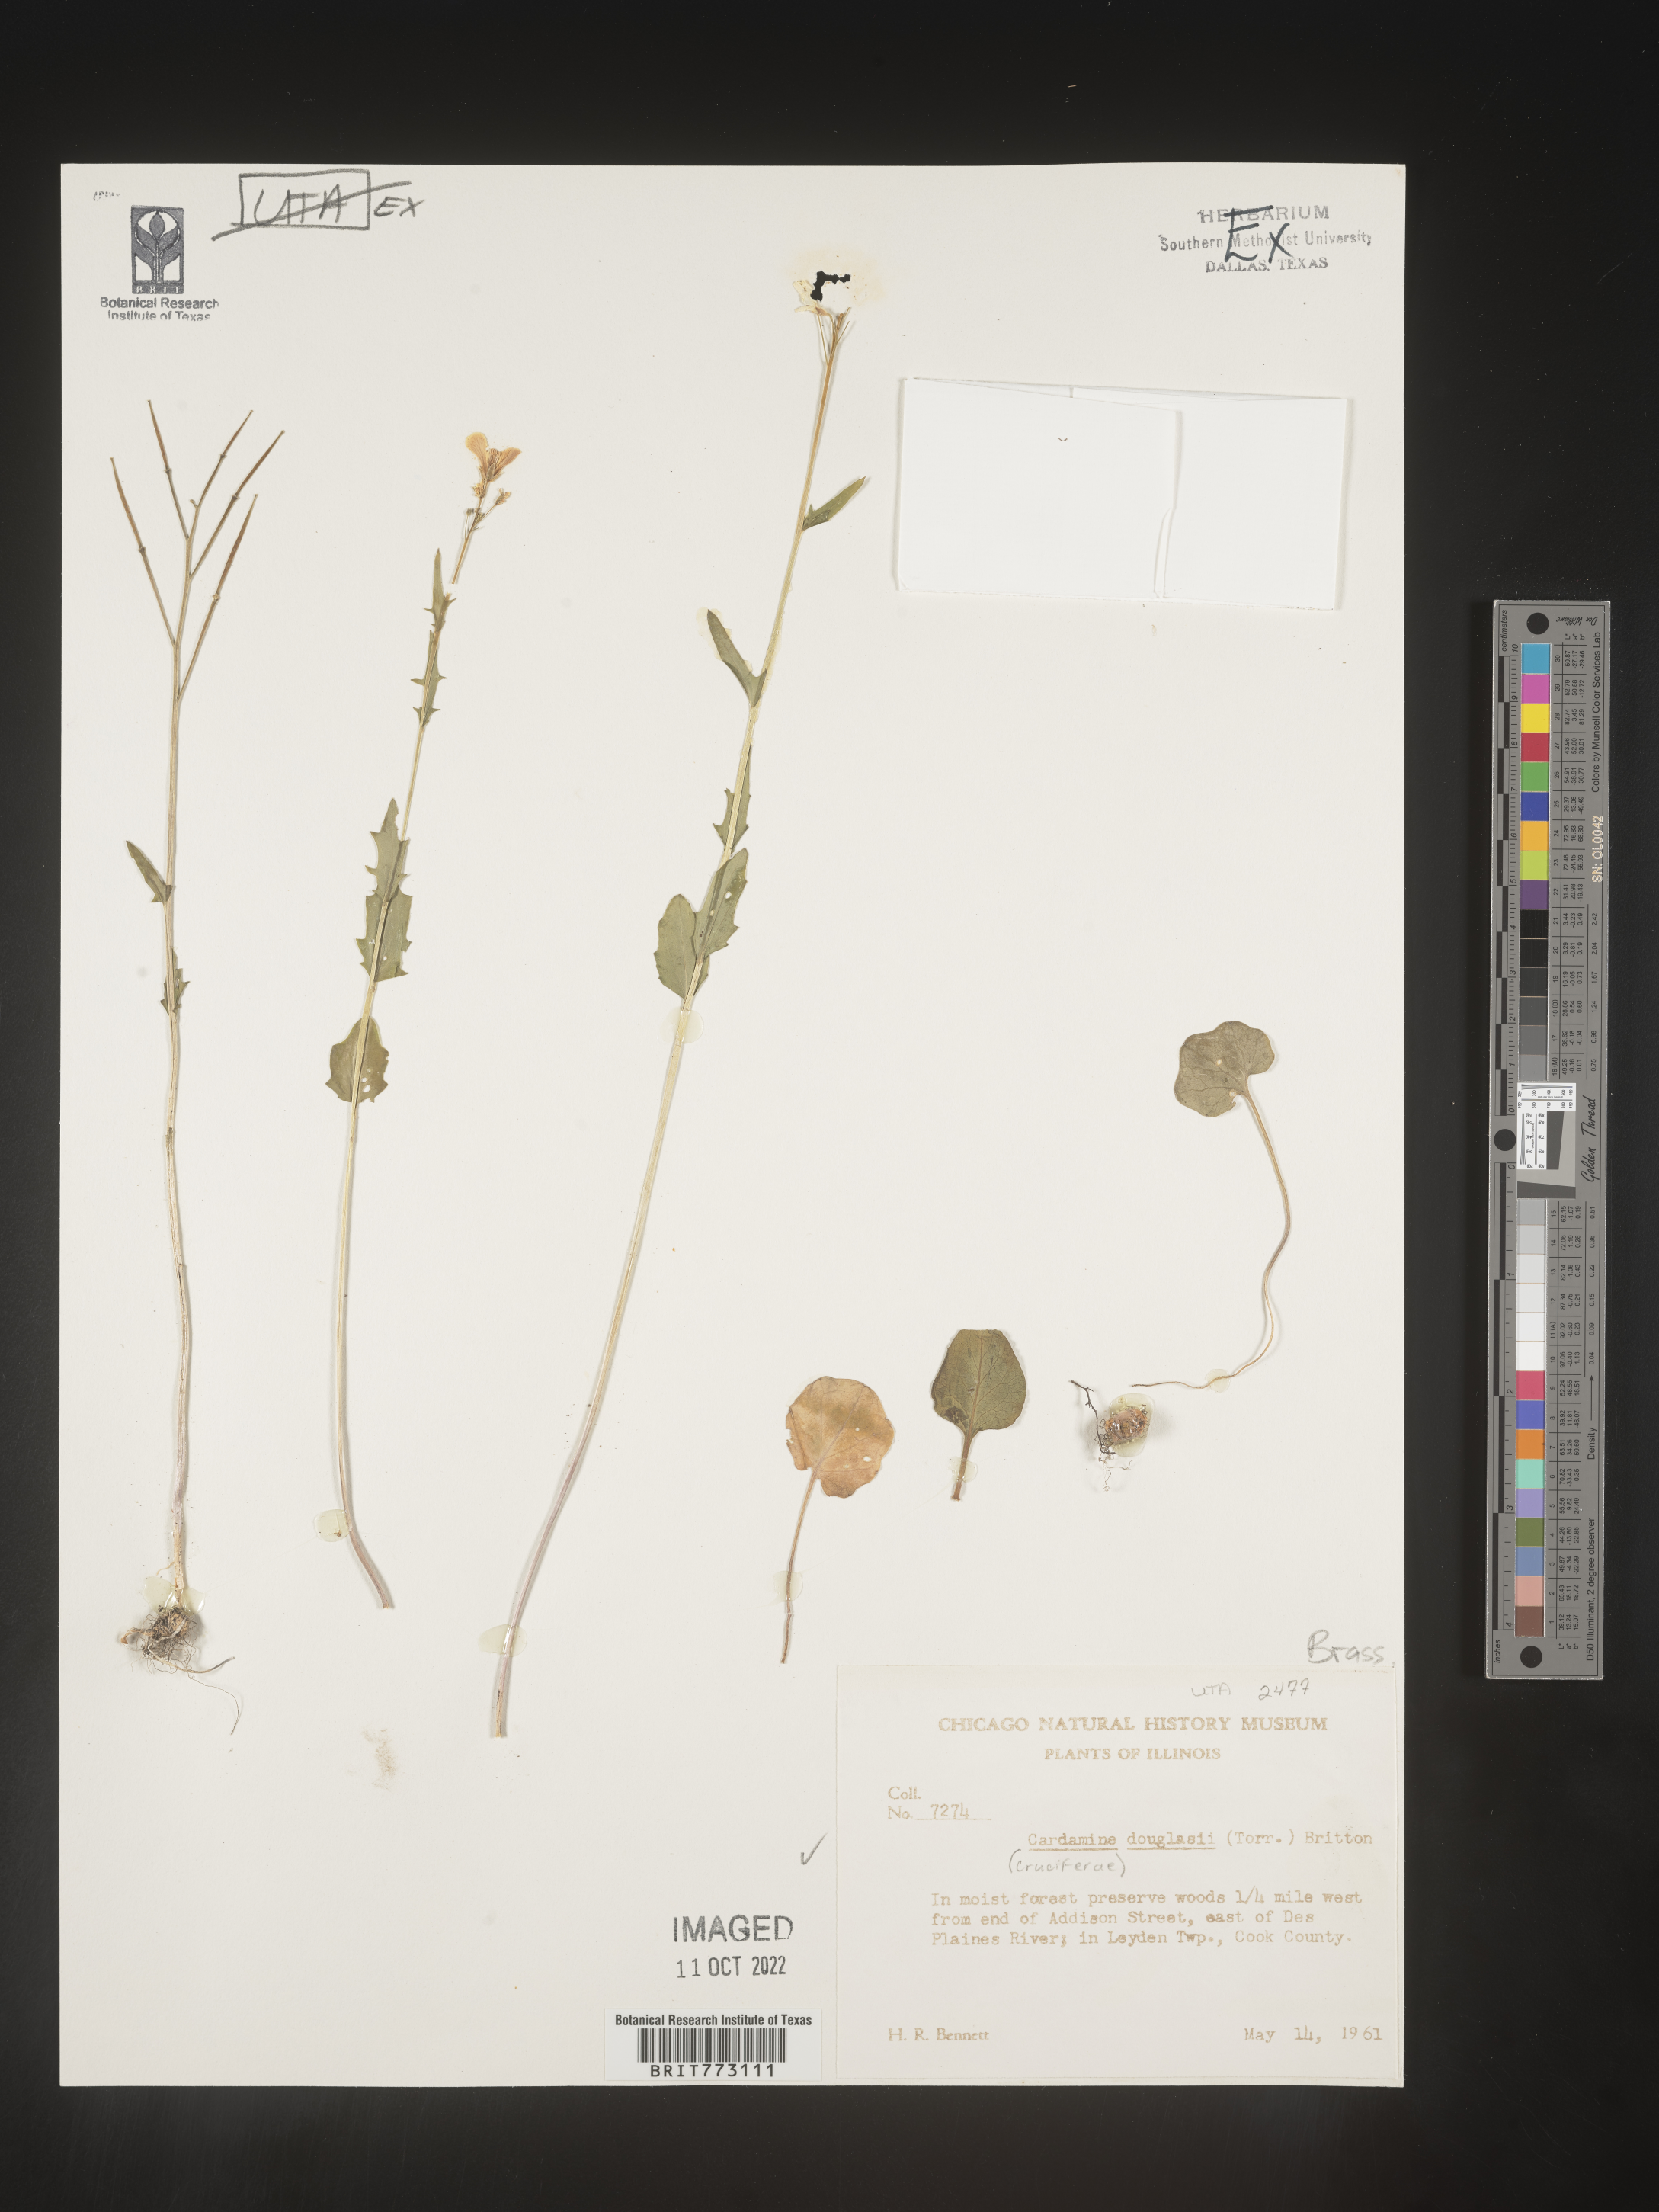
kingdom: Plantae
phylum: Tracheophyta
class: Magnoliopsida
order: Brassicales
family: Brassicaceae
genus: Cardamine
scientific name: Cardamine
